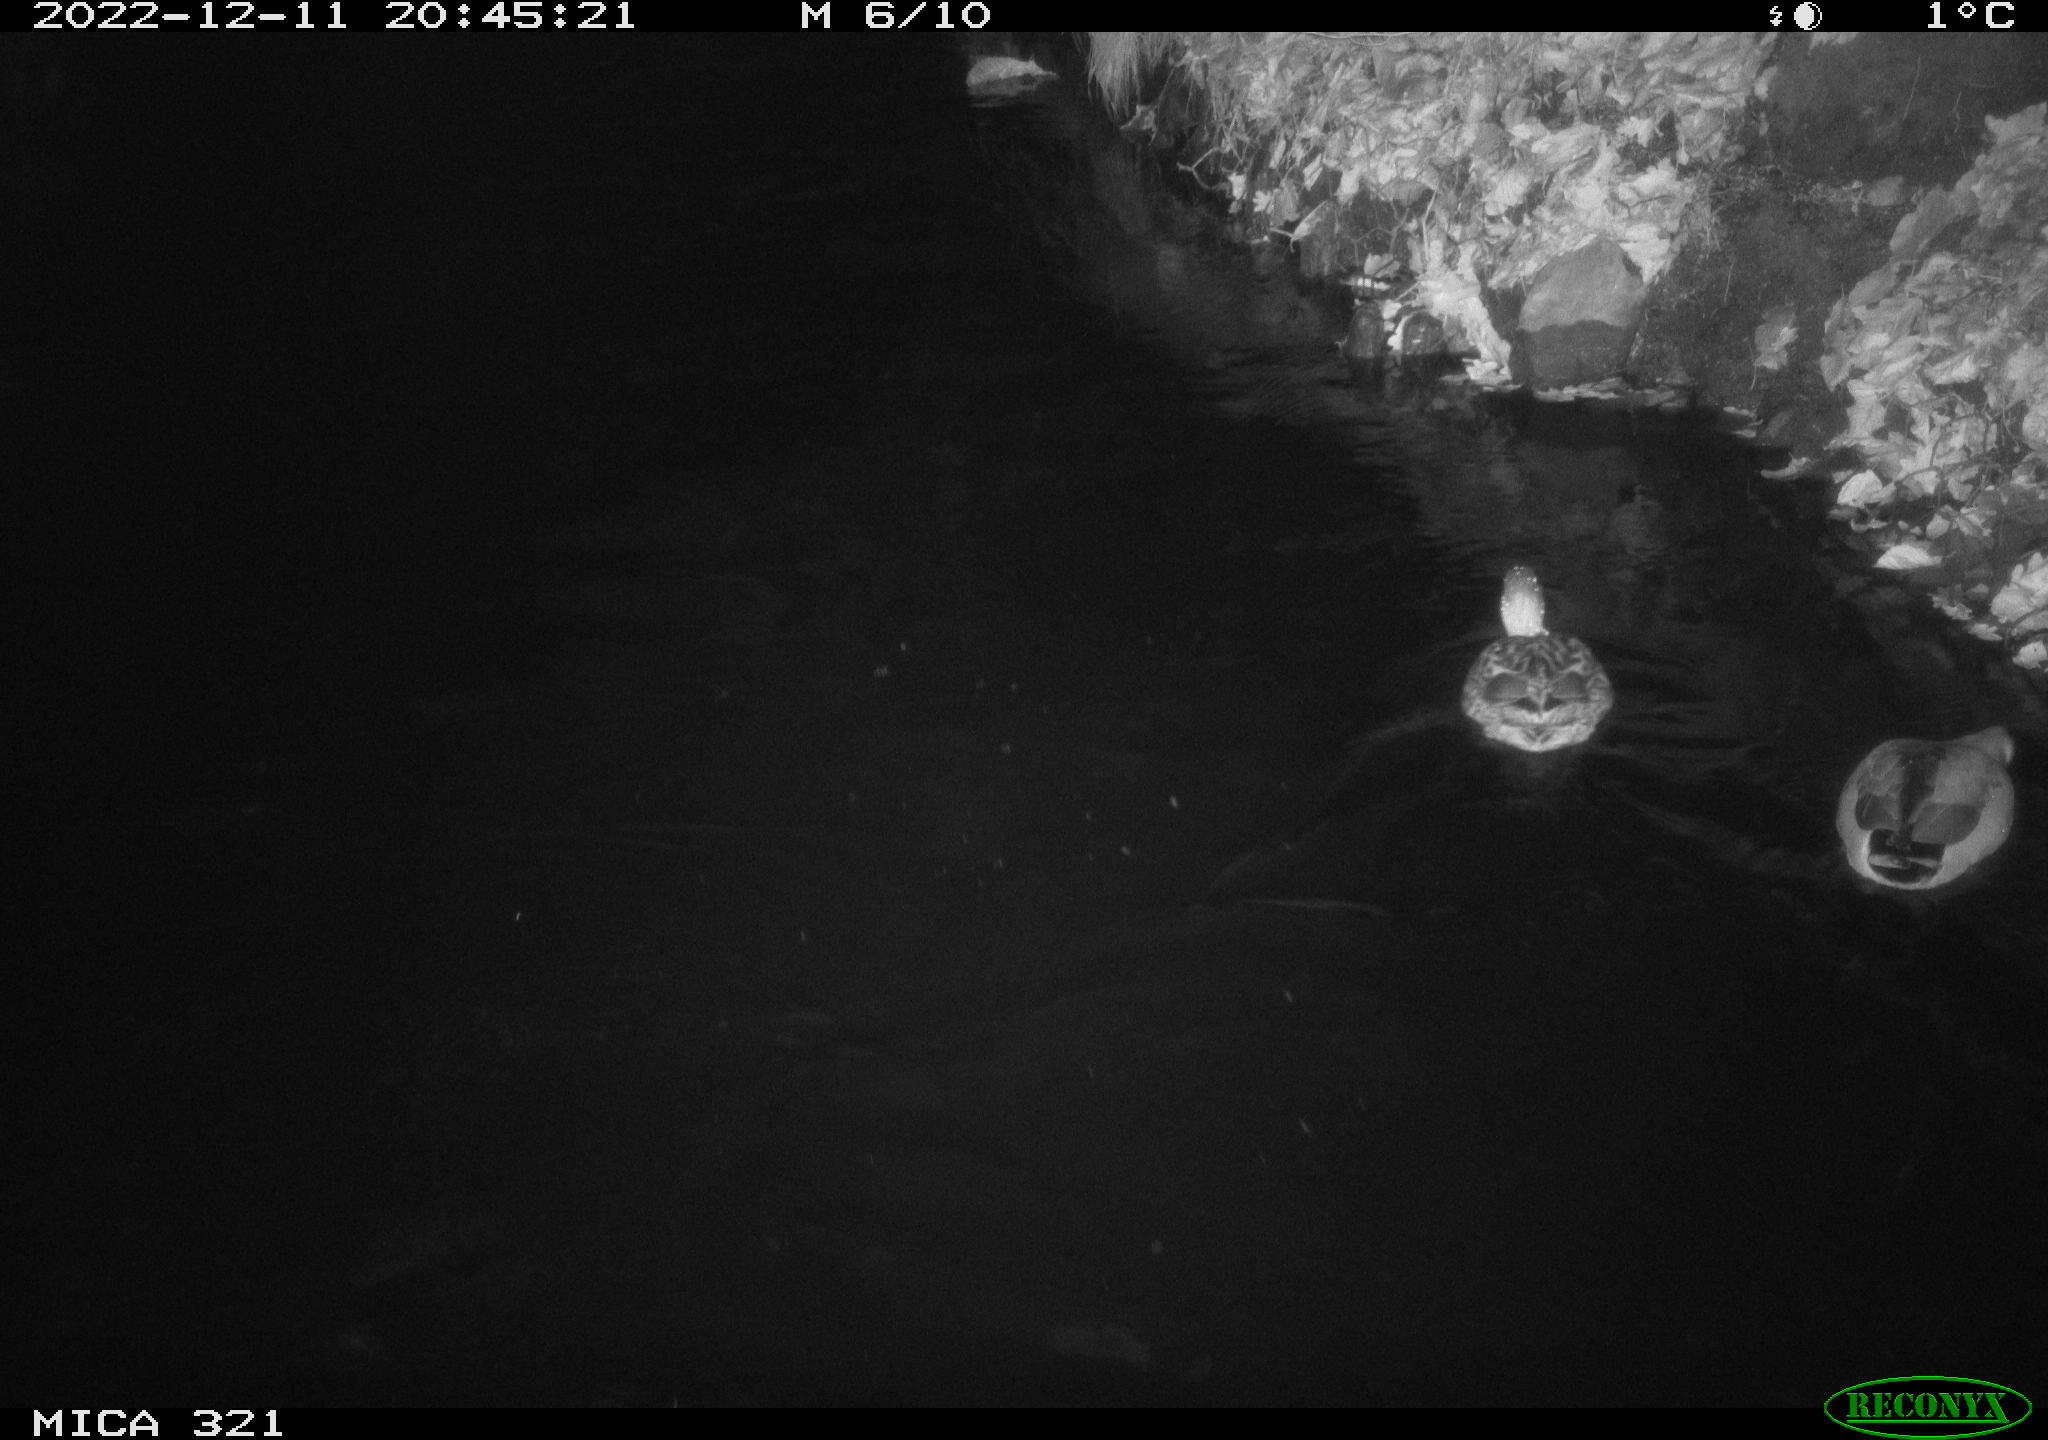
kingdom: Animalia
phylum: Chordata
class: Aves
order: Anseriformes
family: Anatidae
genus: Anas
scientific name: Anas
